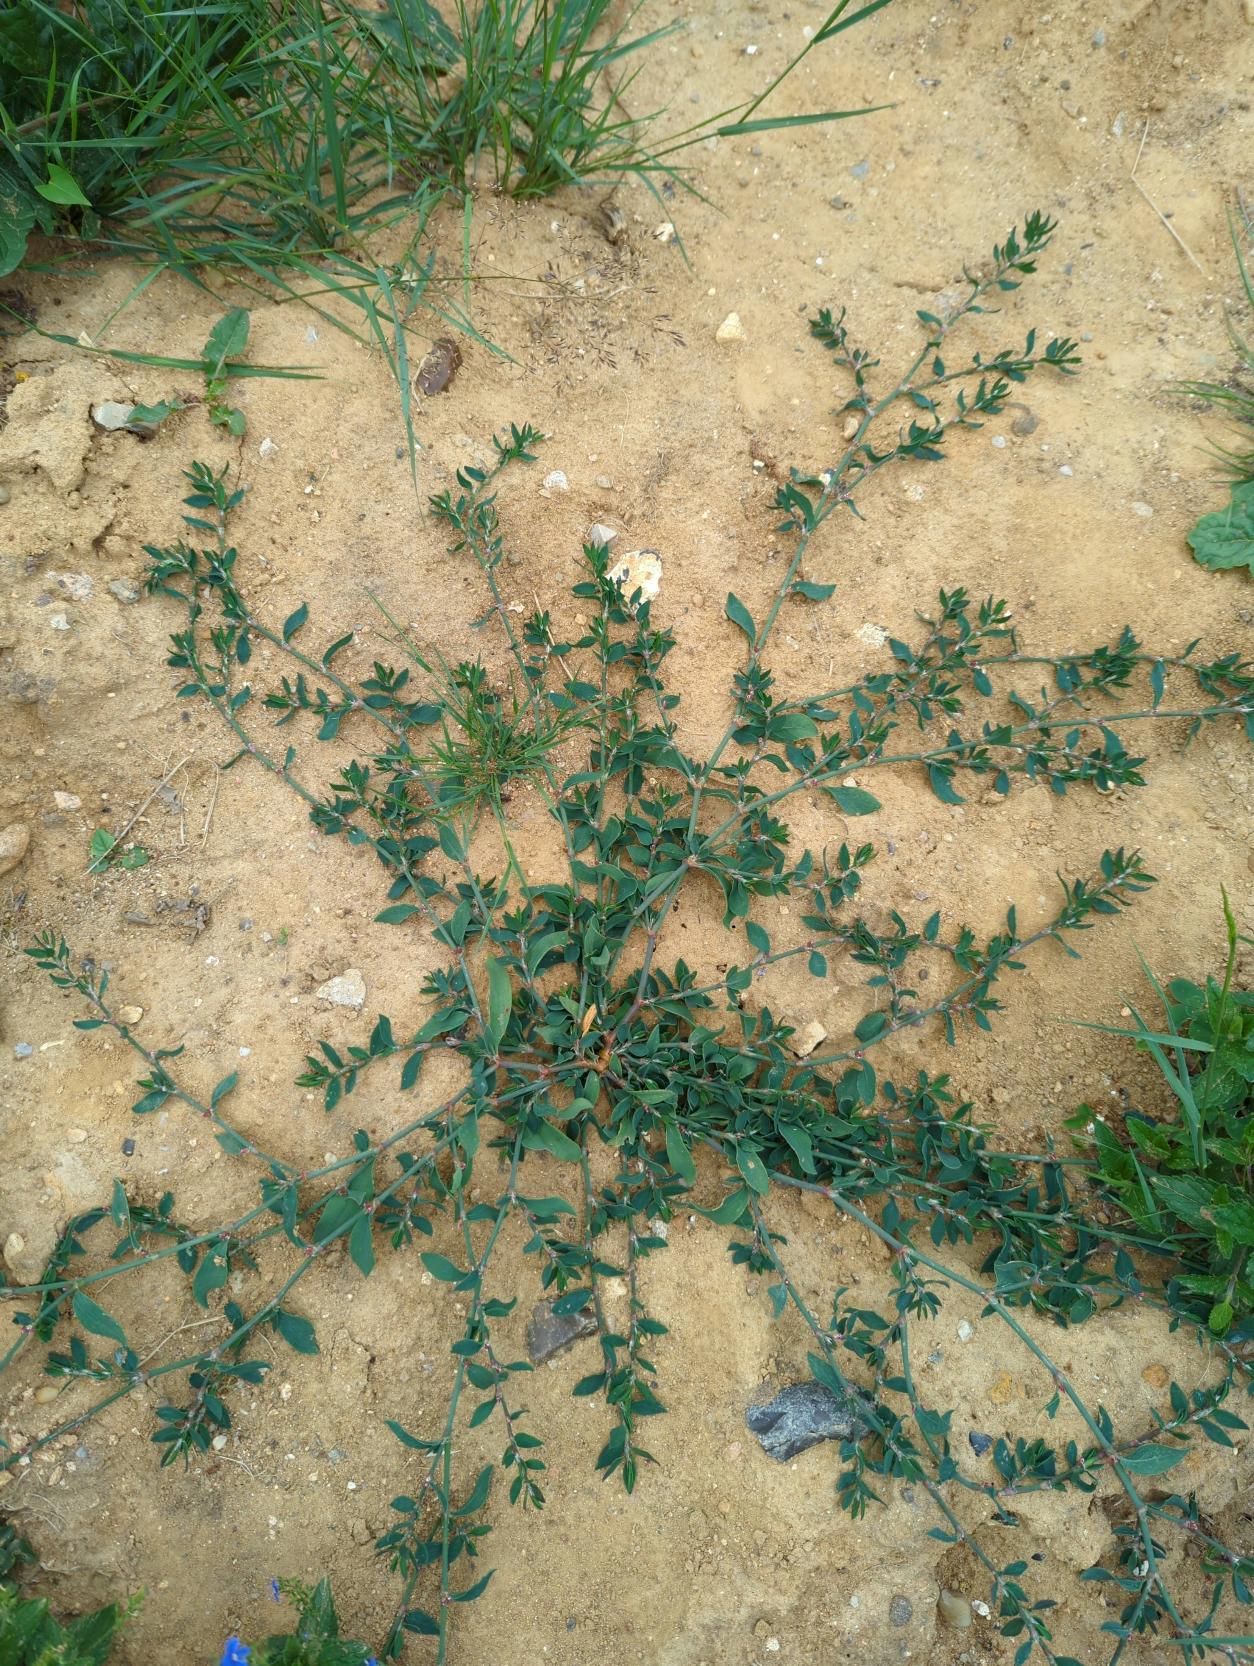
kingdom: Plantae
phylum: Tracheophyta
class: Magnoliopsida
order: Caryophyllales
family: Polygonaceae
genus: Polygonum
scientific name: Polygonum aviculare
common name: Vej-pileurt
